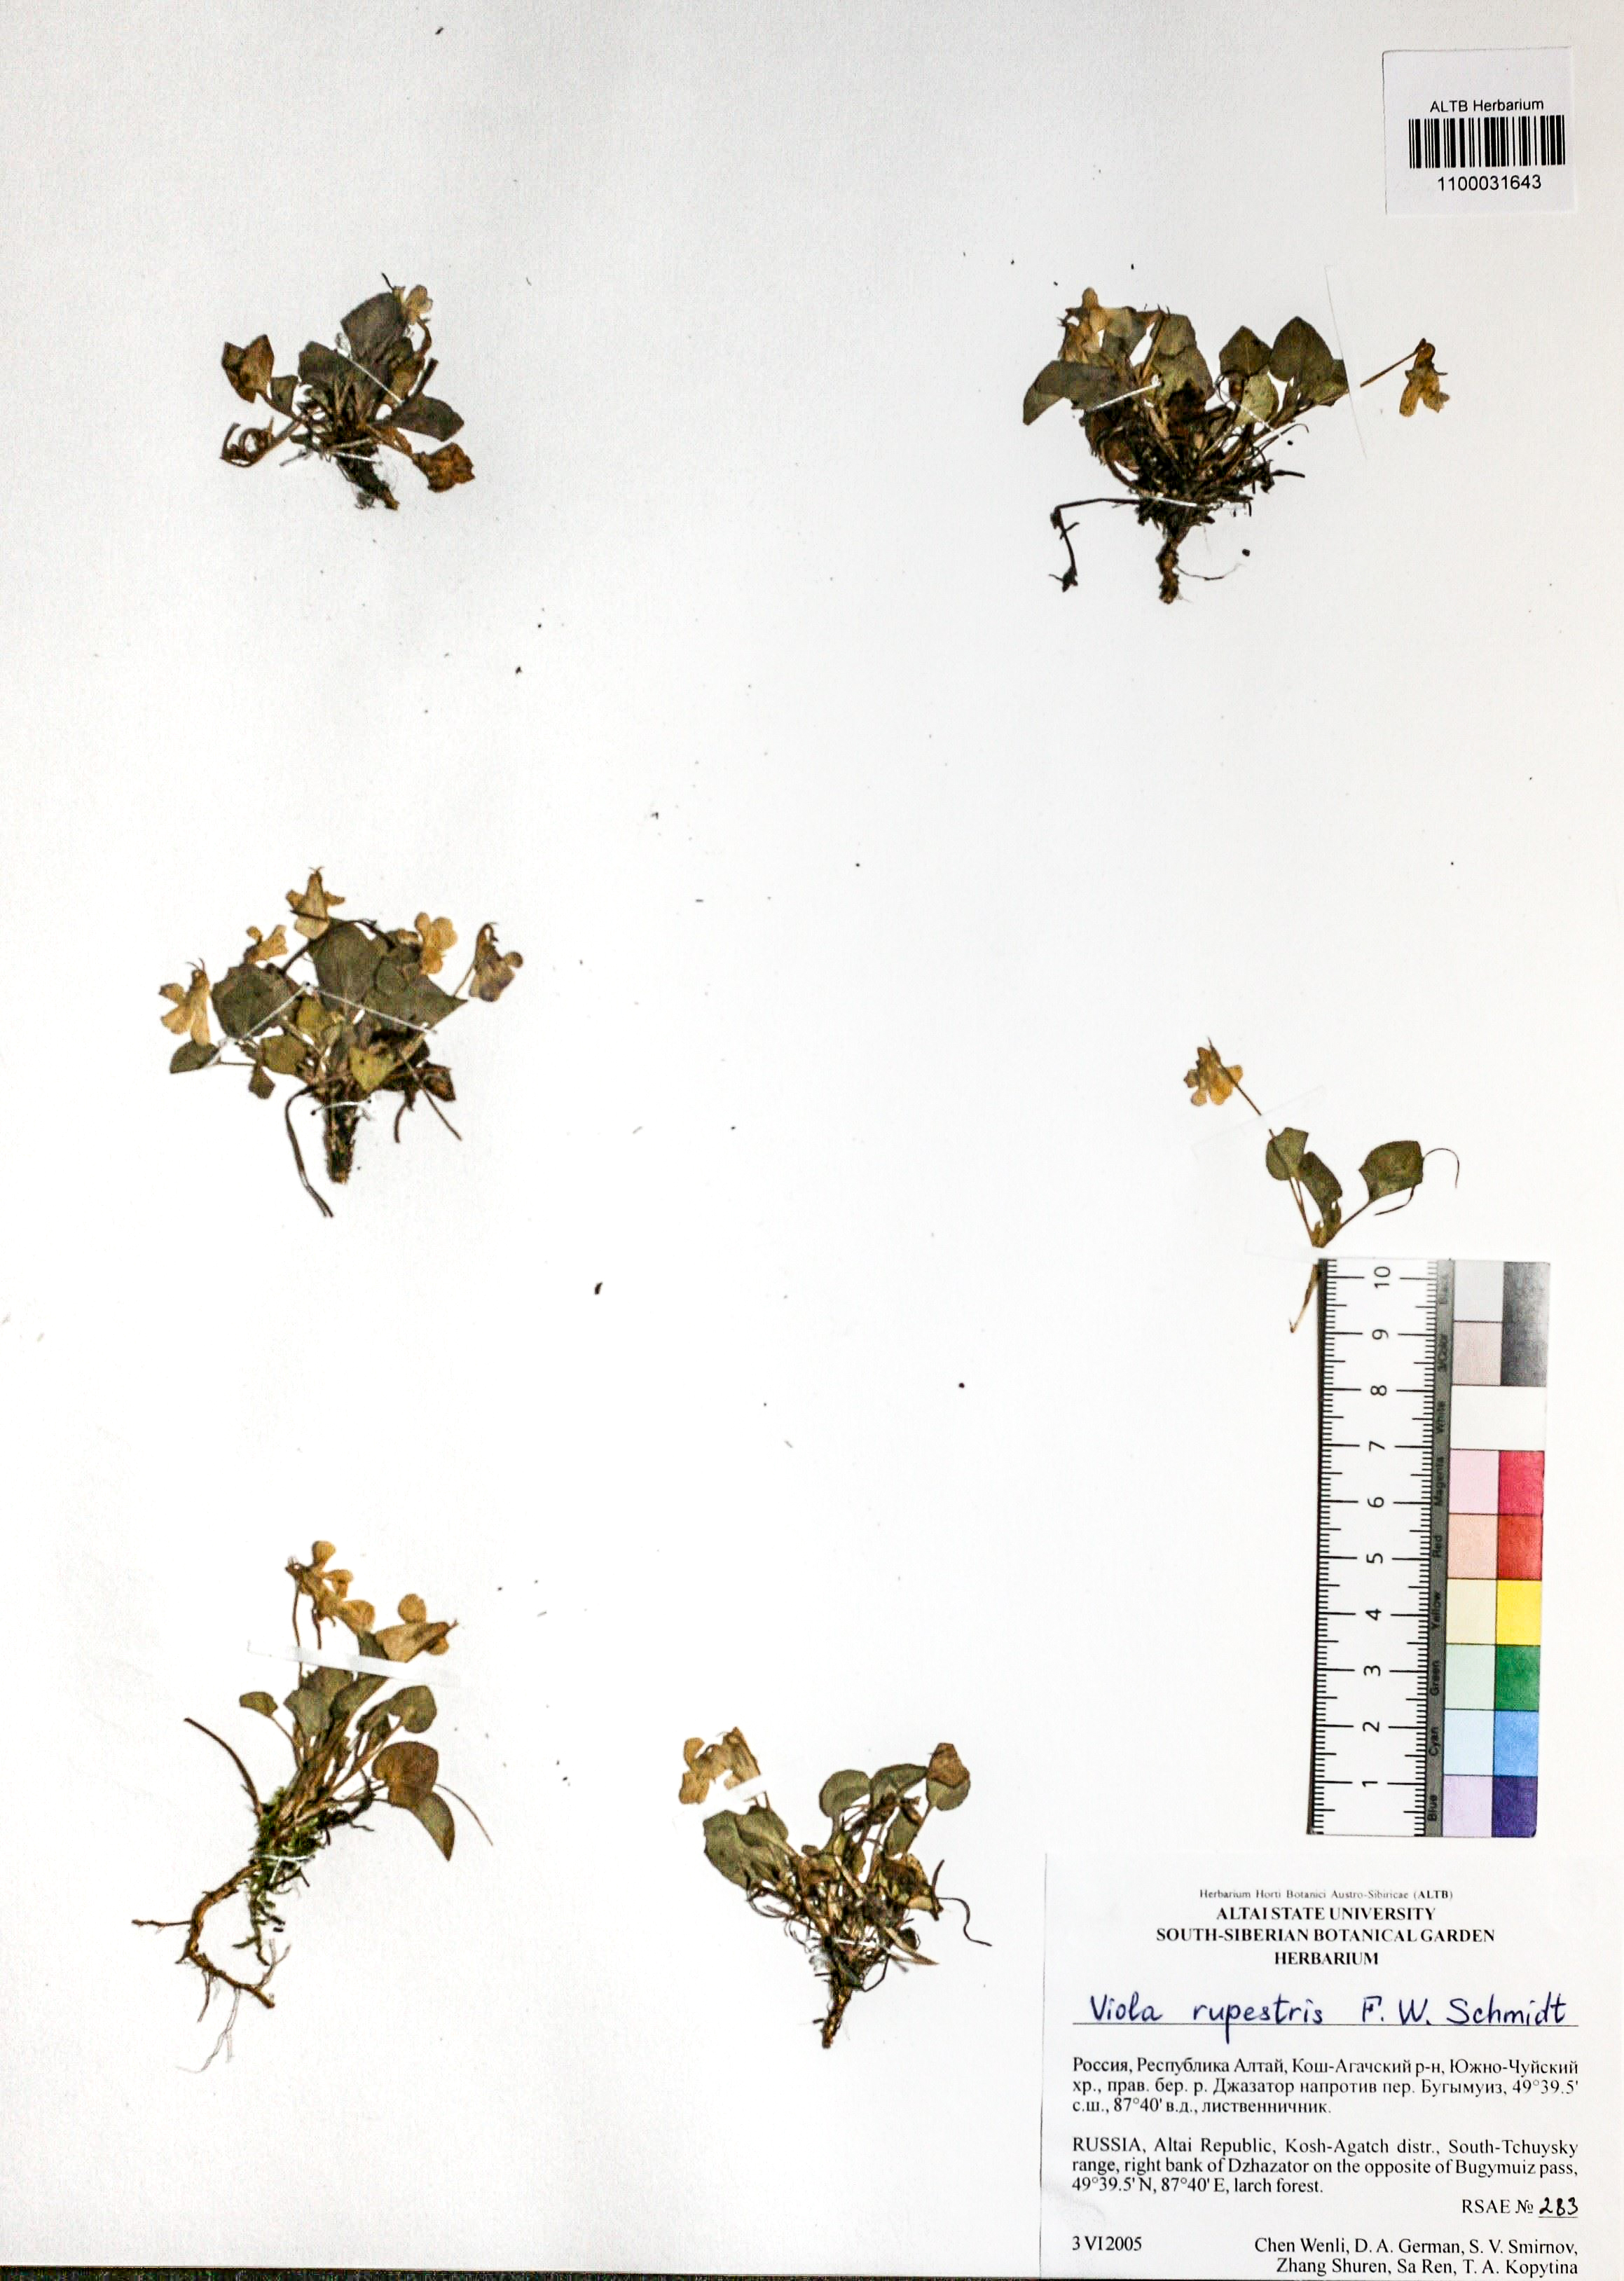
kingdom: Plantae
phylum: Tracheophyta
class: Magnoliopsida
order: Malpighiales
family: Violaceae
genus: Viola
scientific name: Viola rupestris
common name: Teesdale violet
